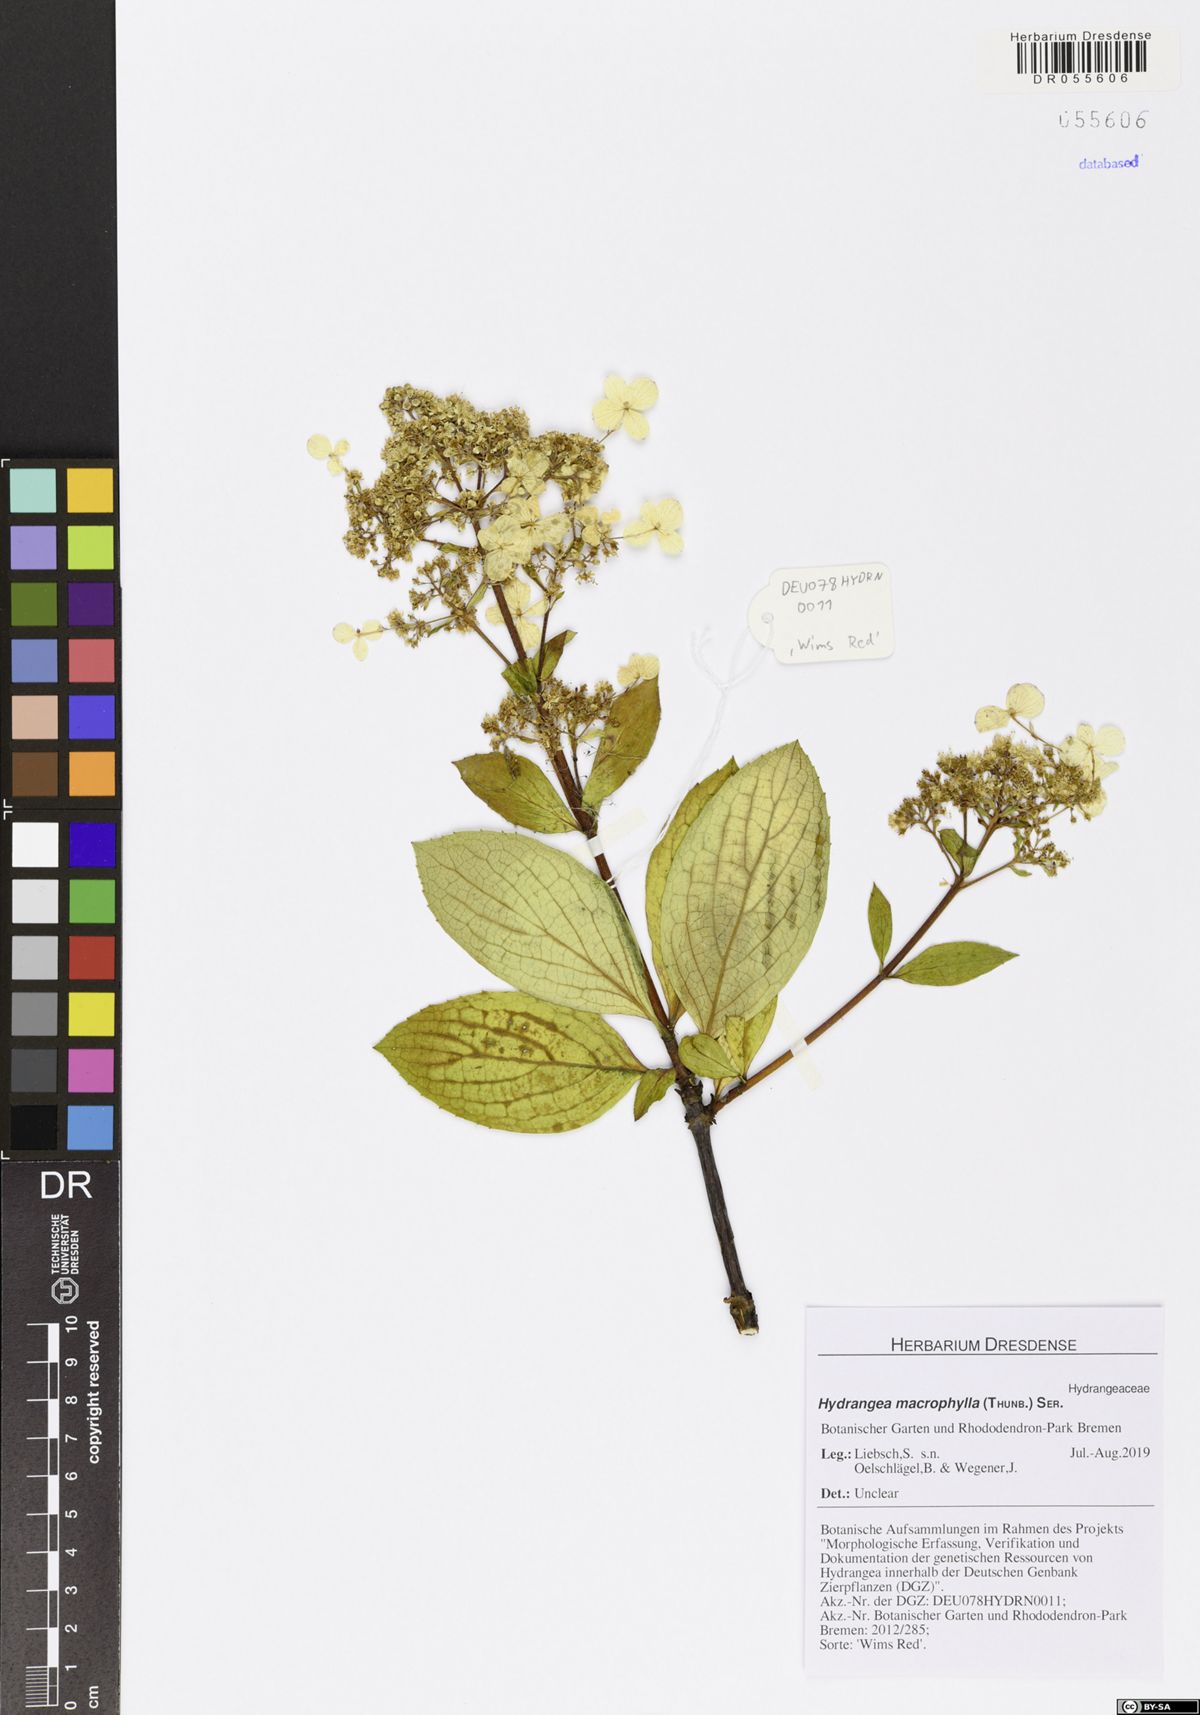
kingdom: Plantae
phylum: Tracheophyta
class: Magnoliopsida
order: Cornales
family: Hydrangeaceae
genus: Hydrangea
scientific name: Hydrangea macrophylla
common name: Hydrangea
